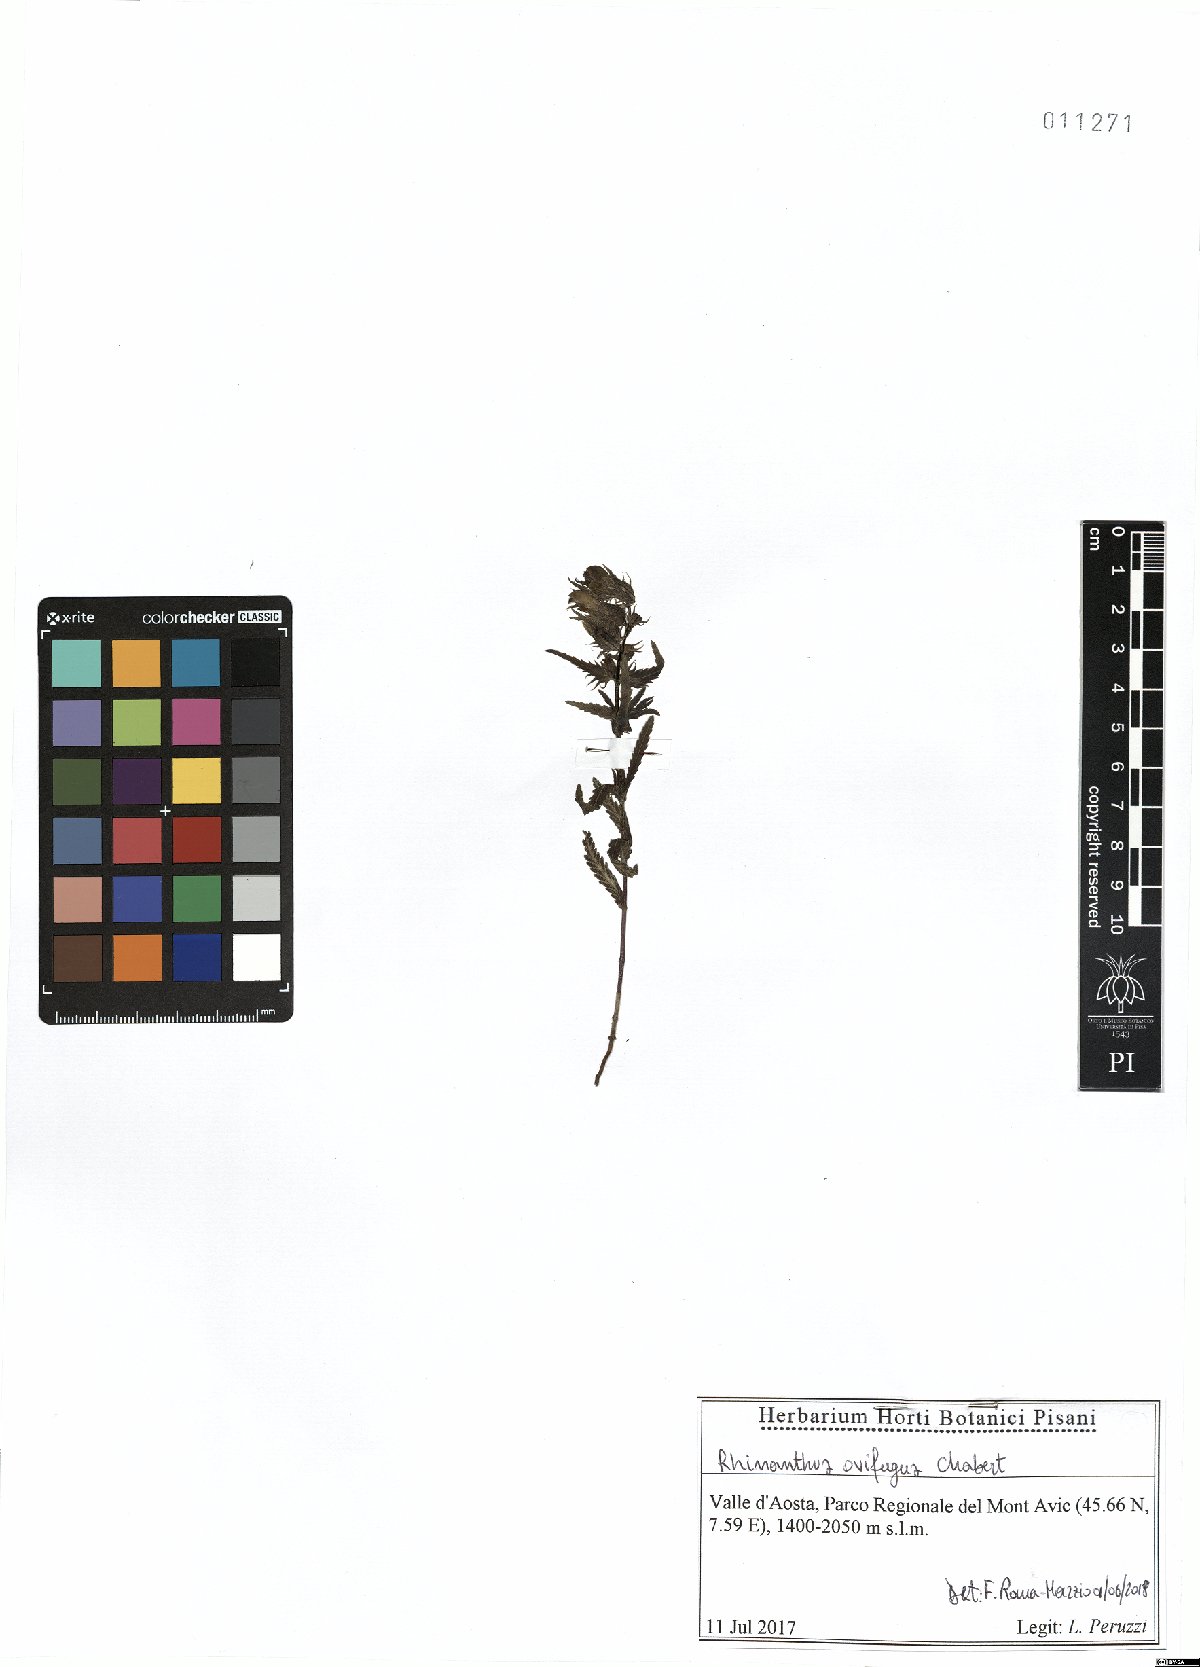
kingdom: Plantae
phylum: Tracheophyta
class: Magnoliopsida
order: Lamiales
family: Orobanchaceae
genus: Rhinanthus
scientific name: Rhinanthus ovifugus
